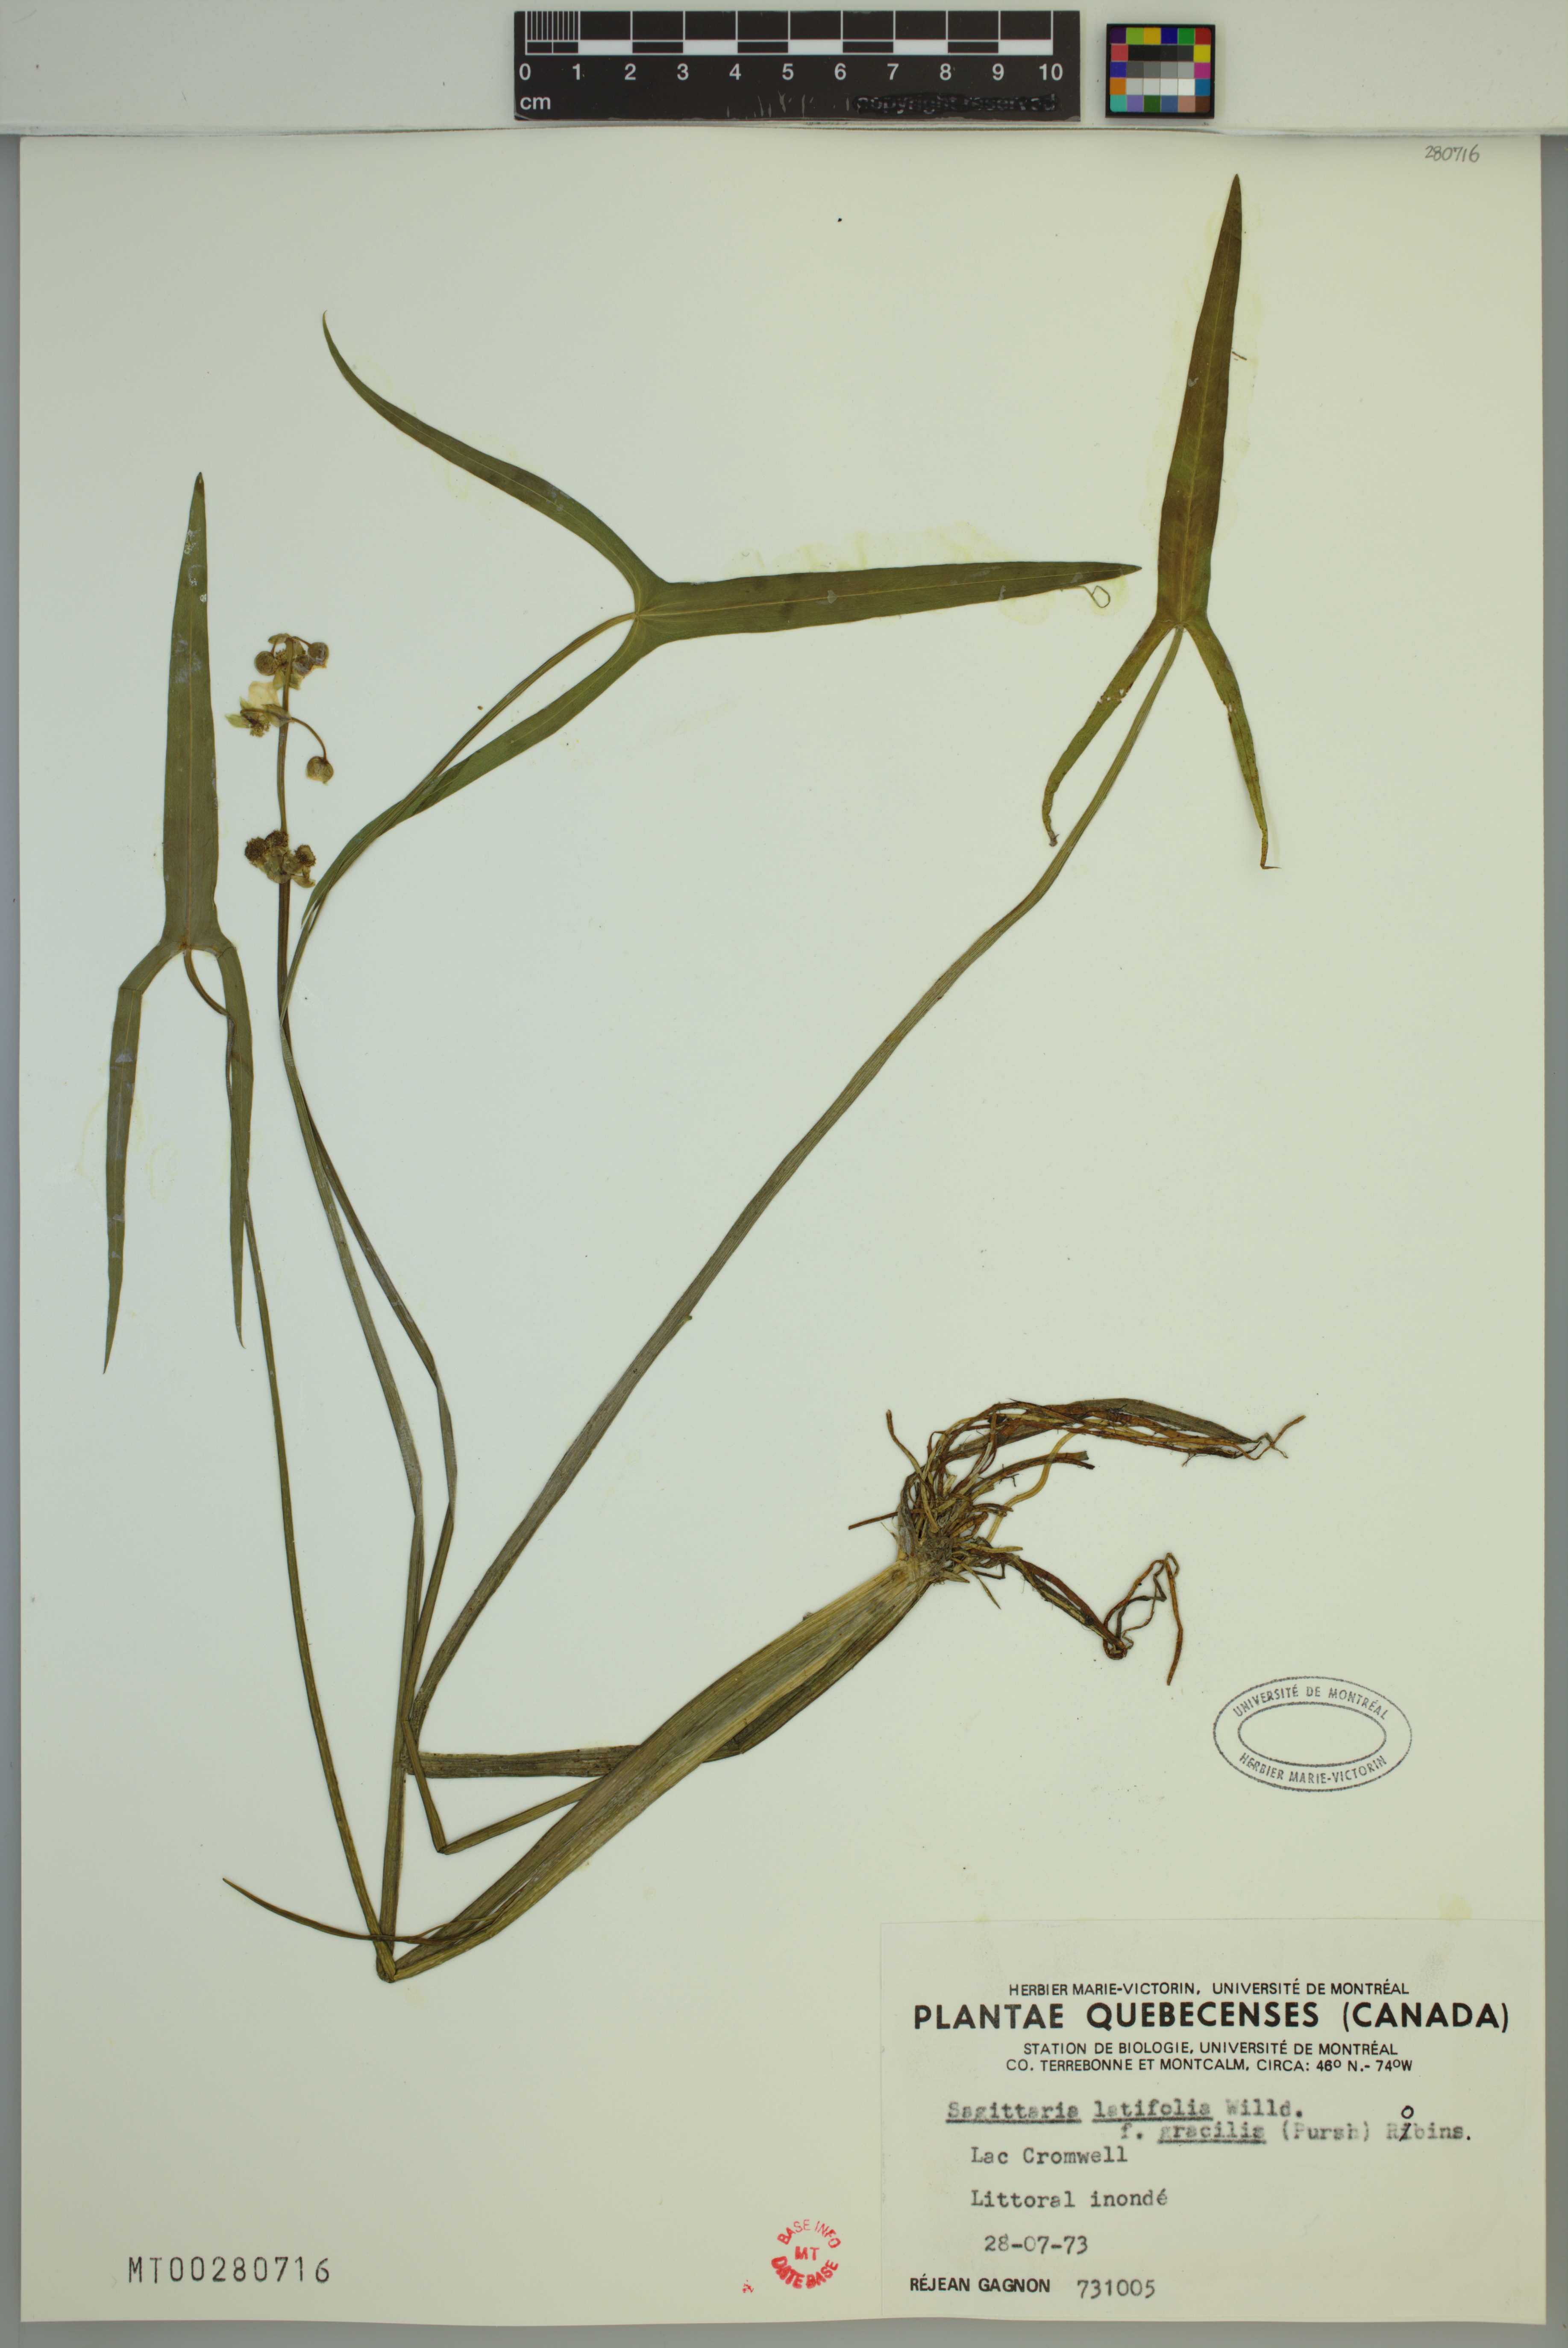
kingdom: Plantae
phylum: Tracheophyta
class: Liliopsida
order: Alismatales
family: Alismataceae
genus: Sagittaria
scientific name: Sagittaria latifolia
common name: Duck-potato
